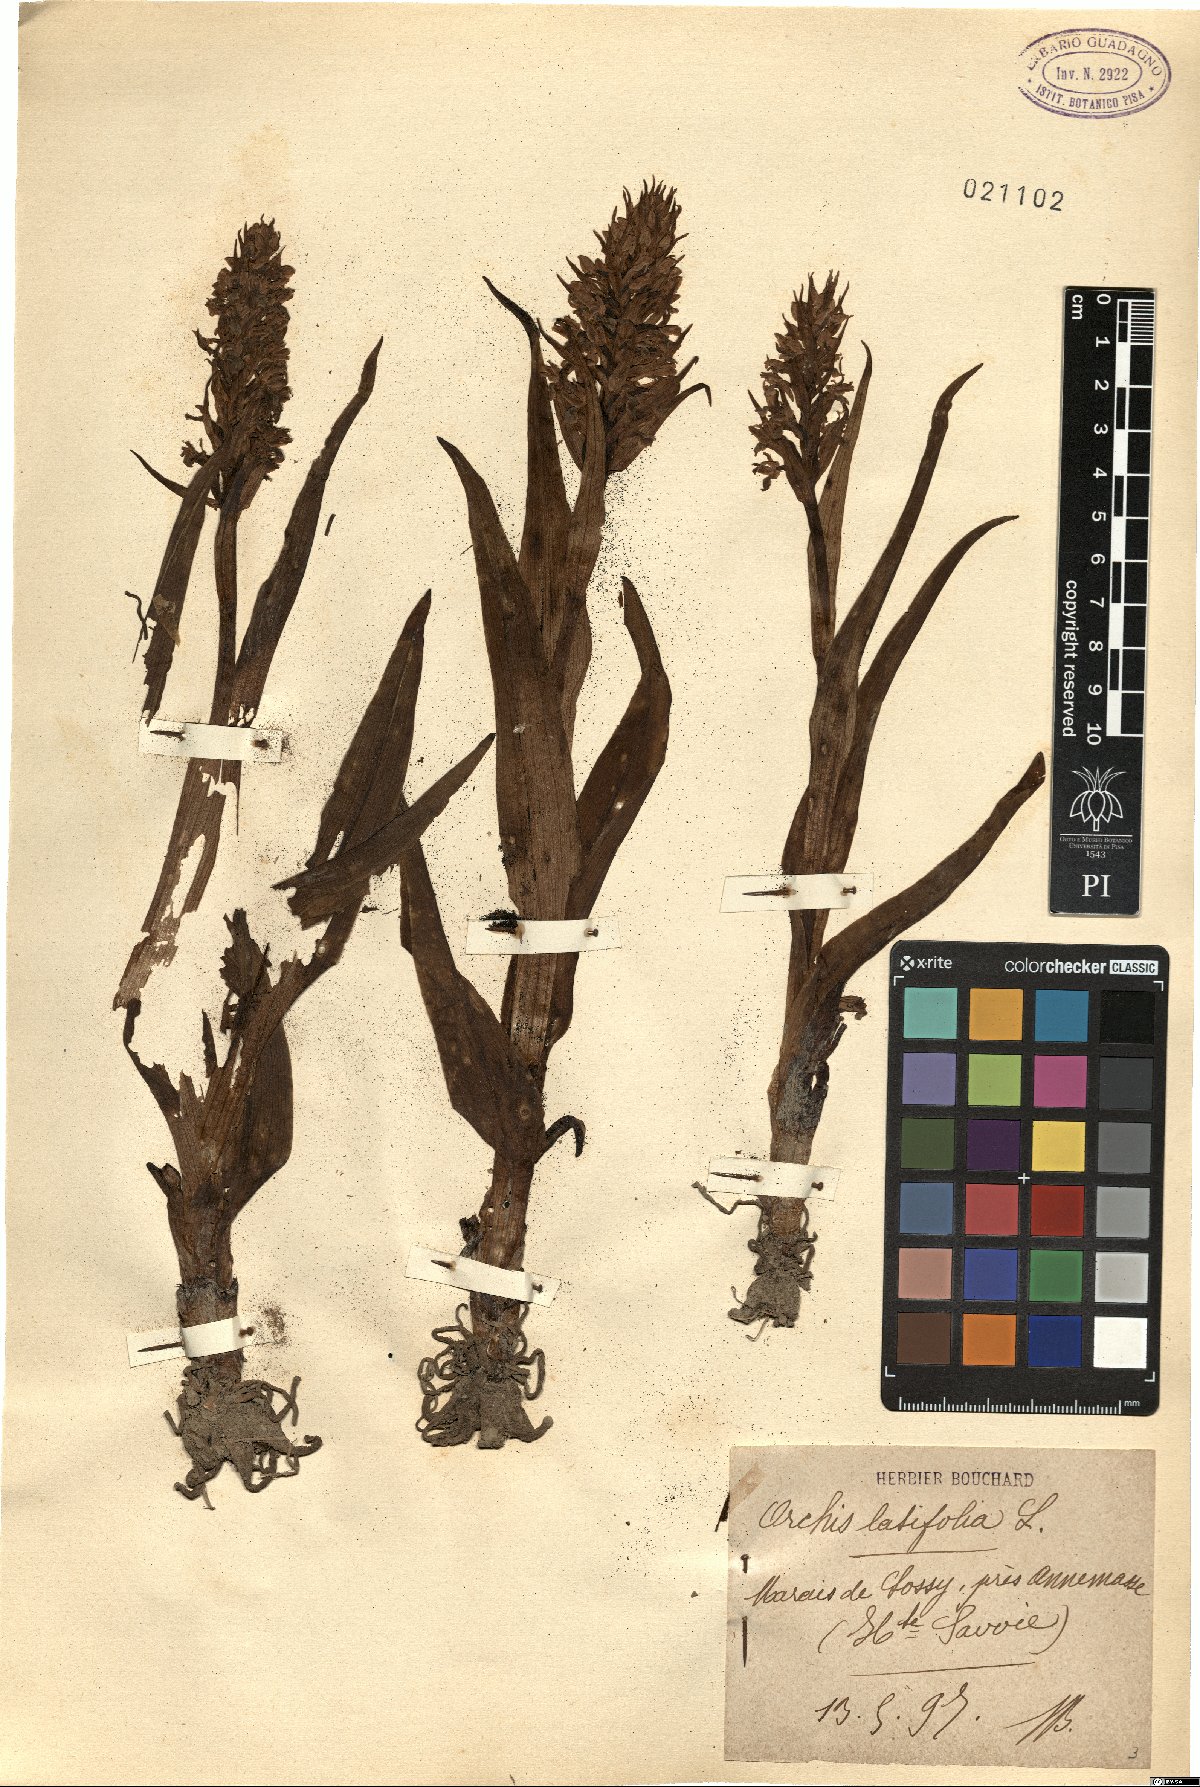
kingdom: Plantae
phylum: Tracheophyta
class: Liliopsida
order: Asparagales
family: Orchidaceae
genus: Dactylorhiza
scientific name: Dactylorhiza incarnata
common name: Early marsh-orchid
